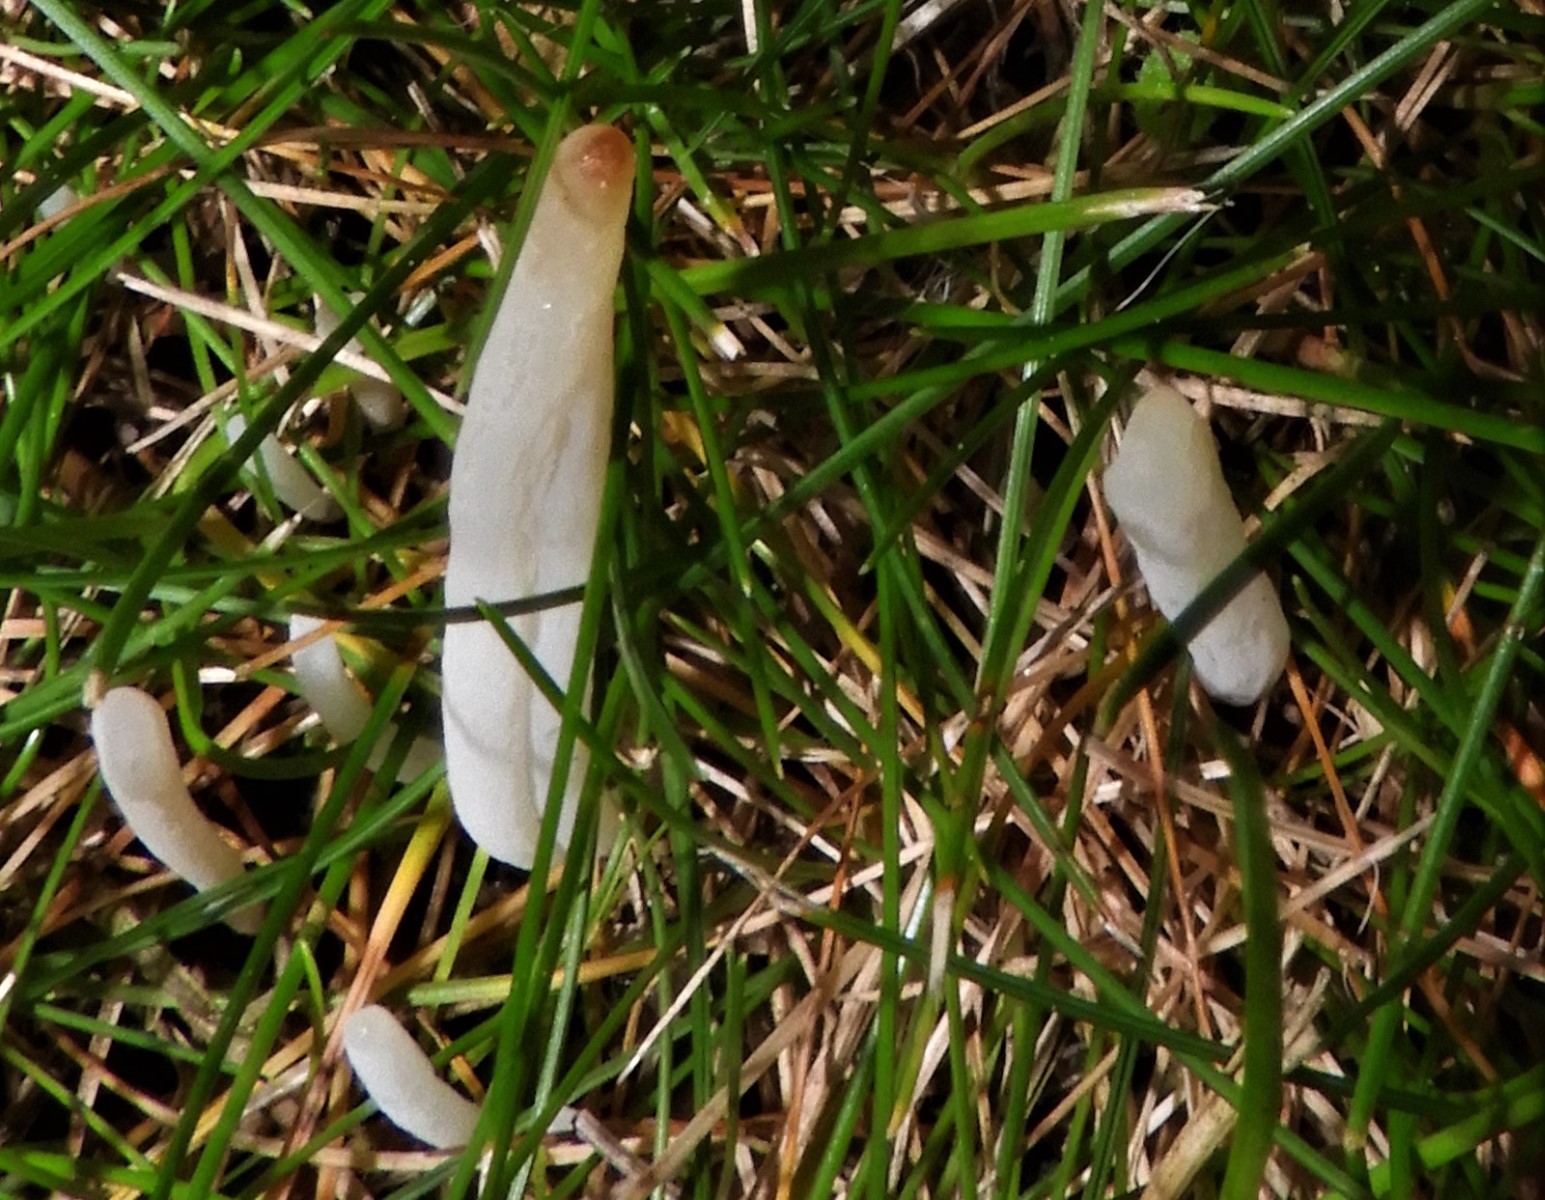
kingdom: Fungi
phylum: Basidiomycota
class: Agaricomycetes
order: Agaricales
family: Clavariaceae
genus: Clavaria
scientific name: Clavaria tenuipes
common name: isabellafarvet køllesvamp
